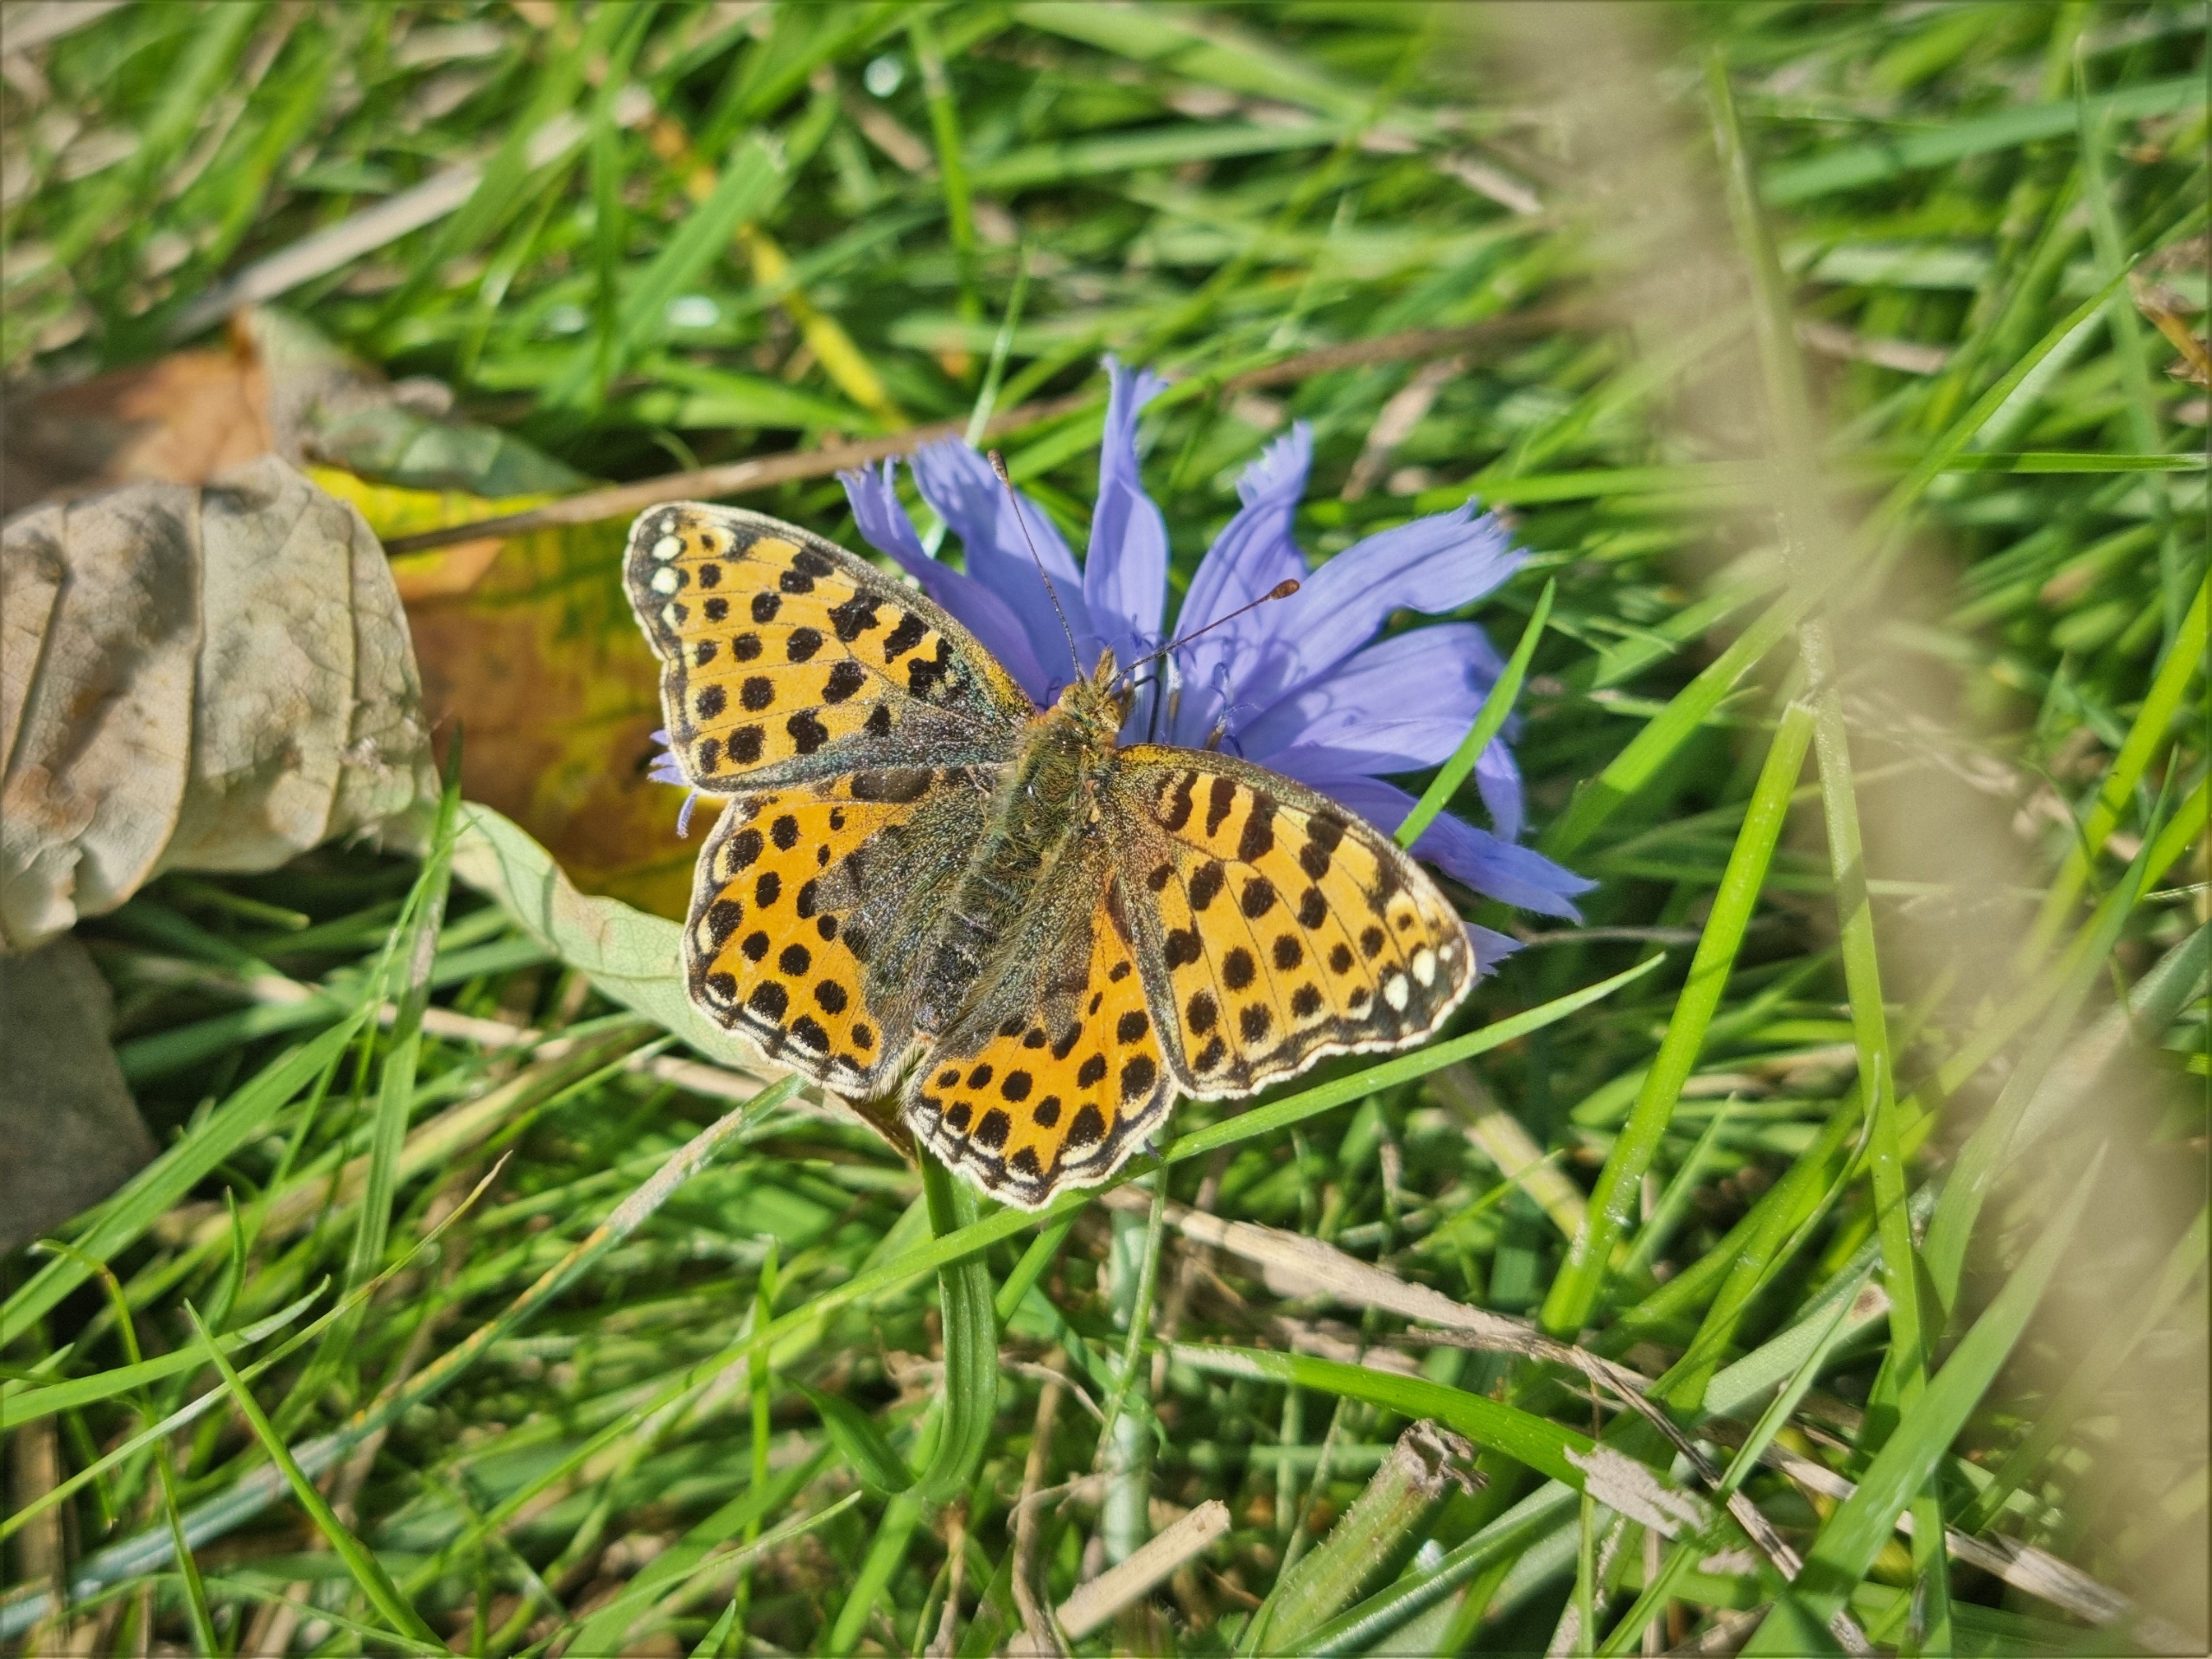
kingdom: Animalia
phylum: Arthropoda
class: Insecta
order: Lepidoptera
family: Nymphalidae
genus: Issoria
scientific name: Issoria lathonia
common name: Storplettet perlemorsommerfugl
